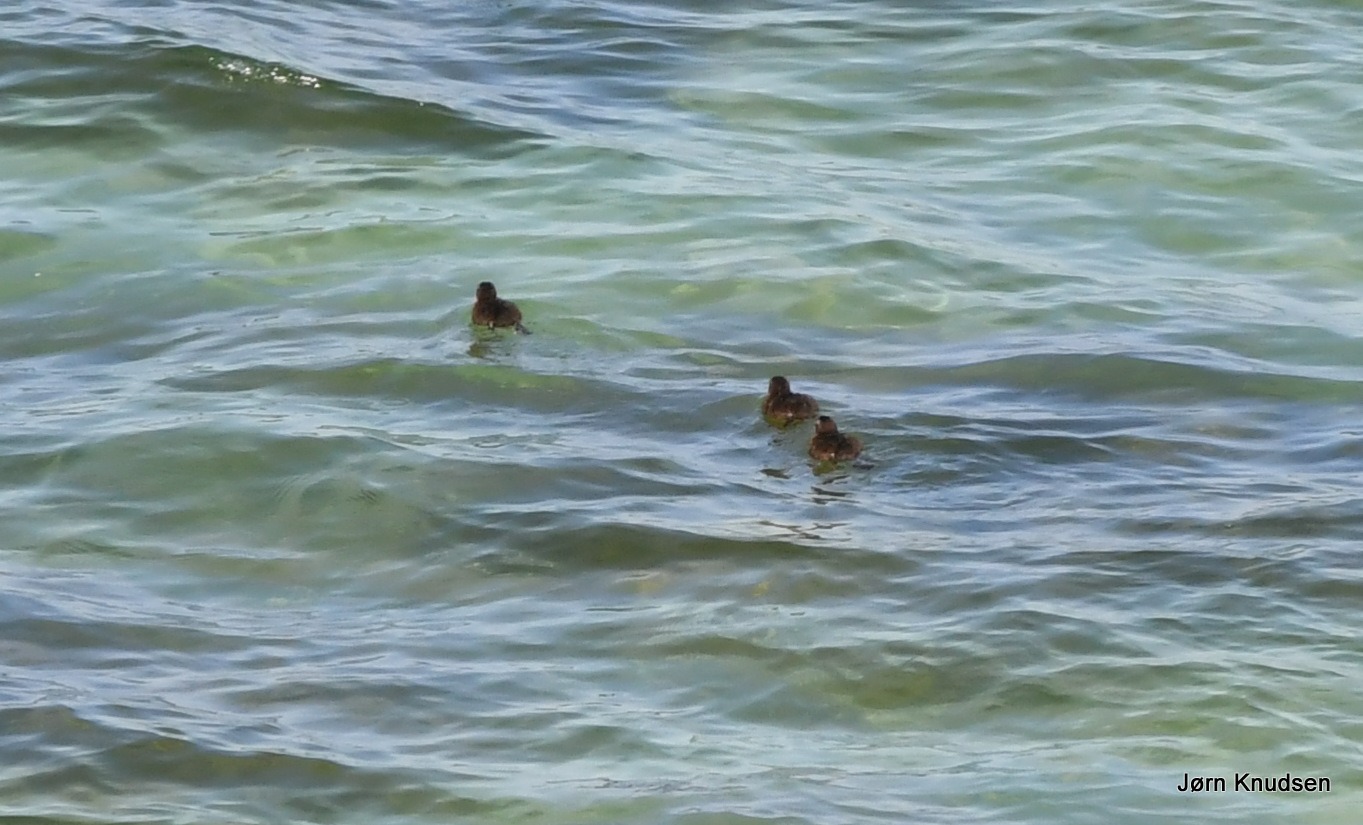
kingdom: Animalia
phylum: Chordata
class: Aves
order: Anseriformes
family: Anatidae
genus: Somateria
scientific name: Somateria mollissima
